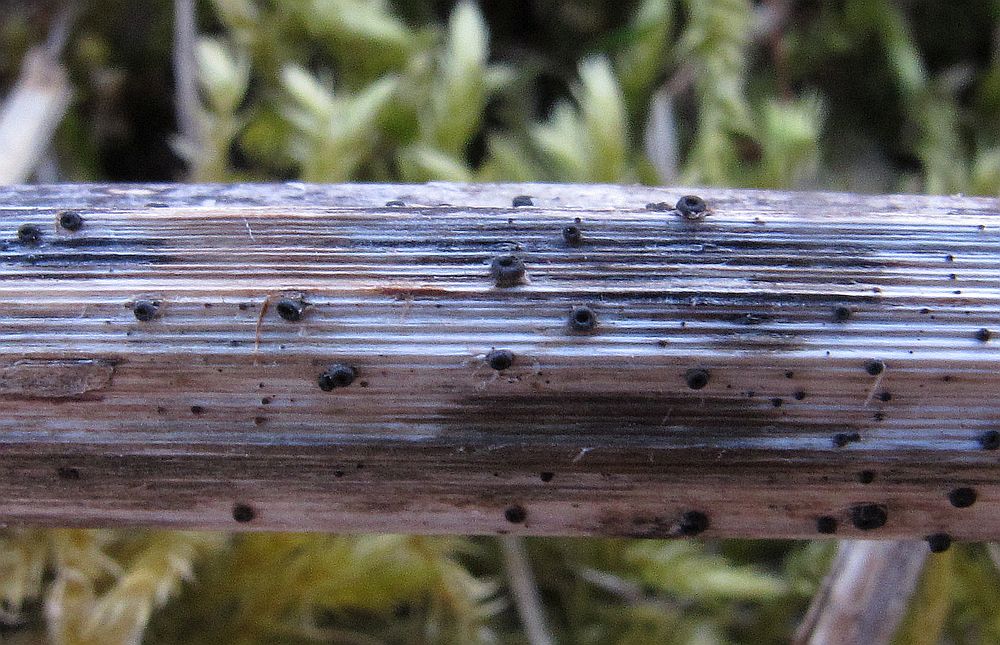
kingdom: Fungi
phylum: Ascomycota
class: Leotiomycetes
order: Helotiales
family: Heterosphaeriaceae
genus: Heterosphaeria
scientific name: Heterosphaeria
